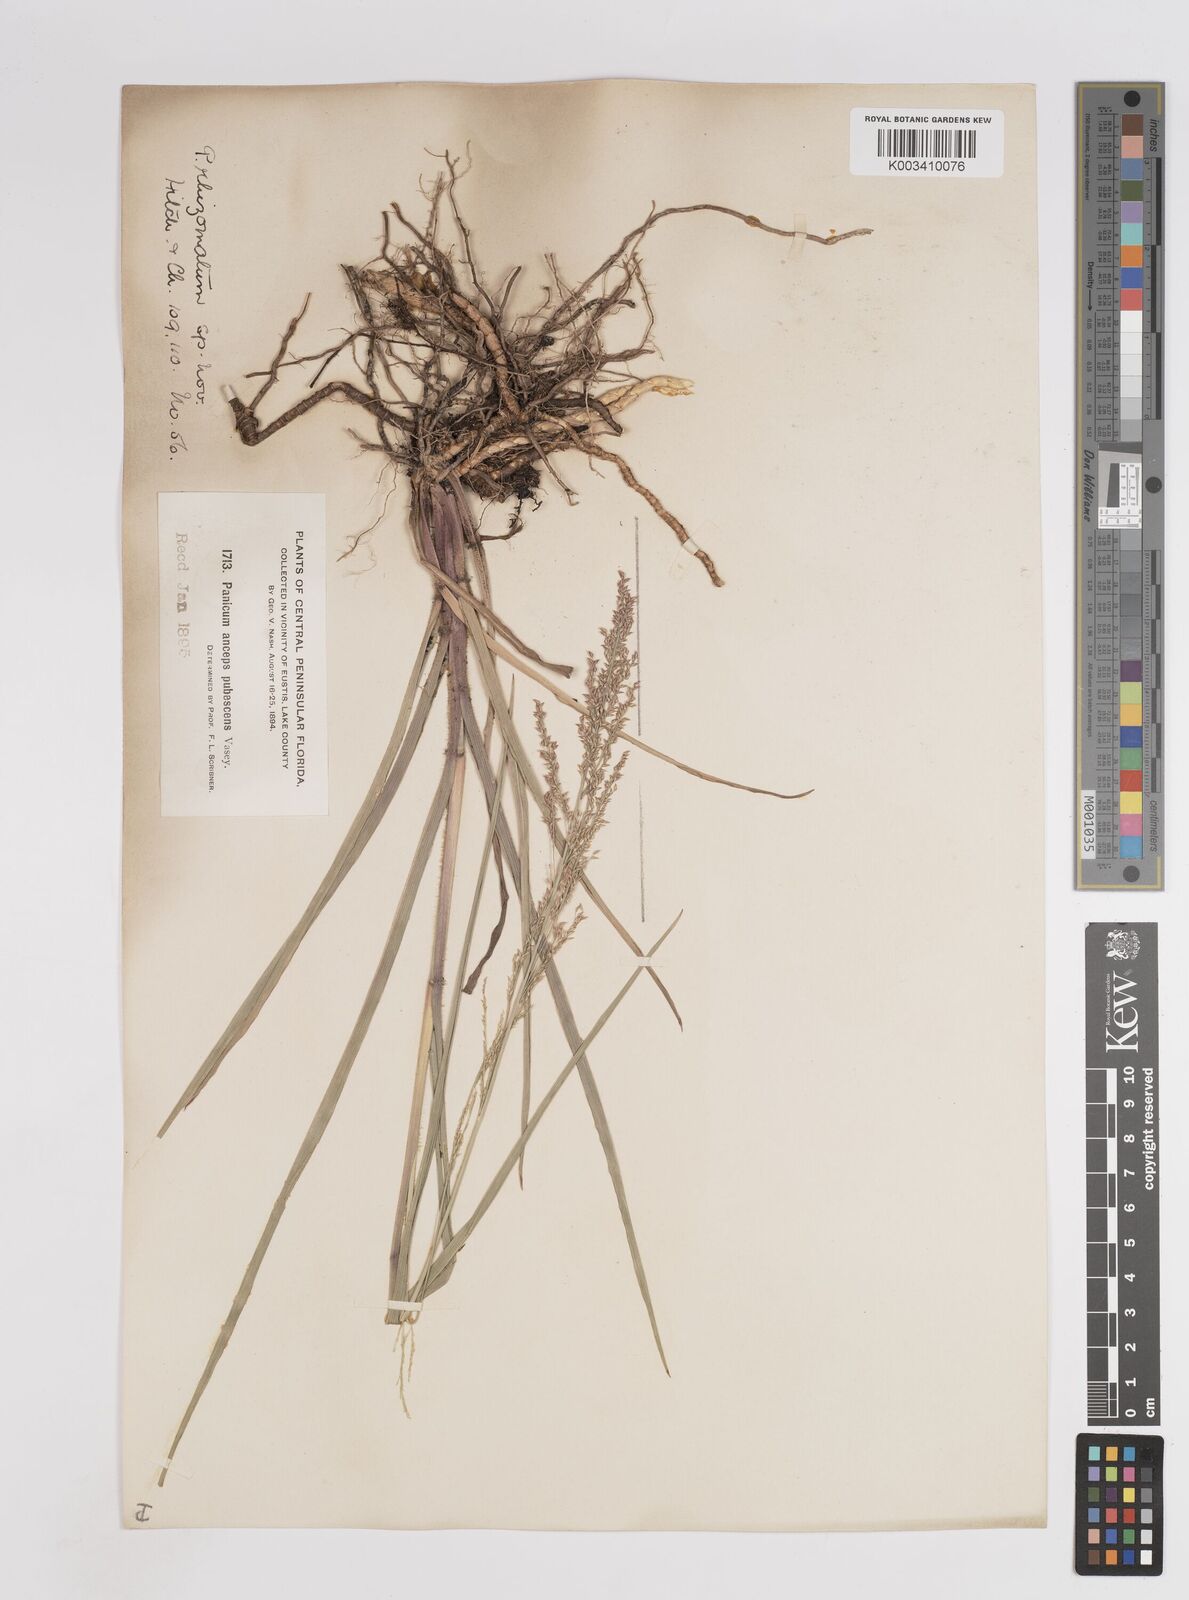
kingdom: Plantae
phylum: Tracheophyta
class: Liliopsida
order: Poales
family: Poaceae
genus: Coleataenia
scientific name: Coleataenia anceps
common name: Beaked panic grass
